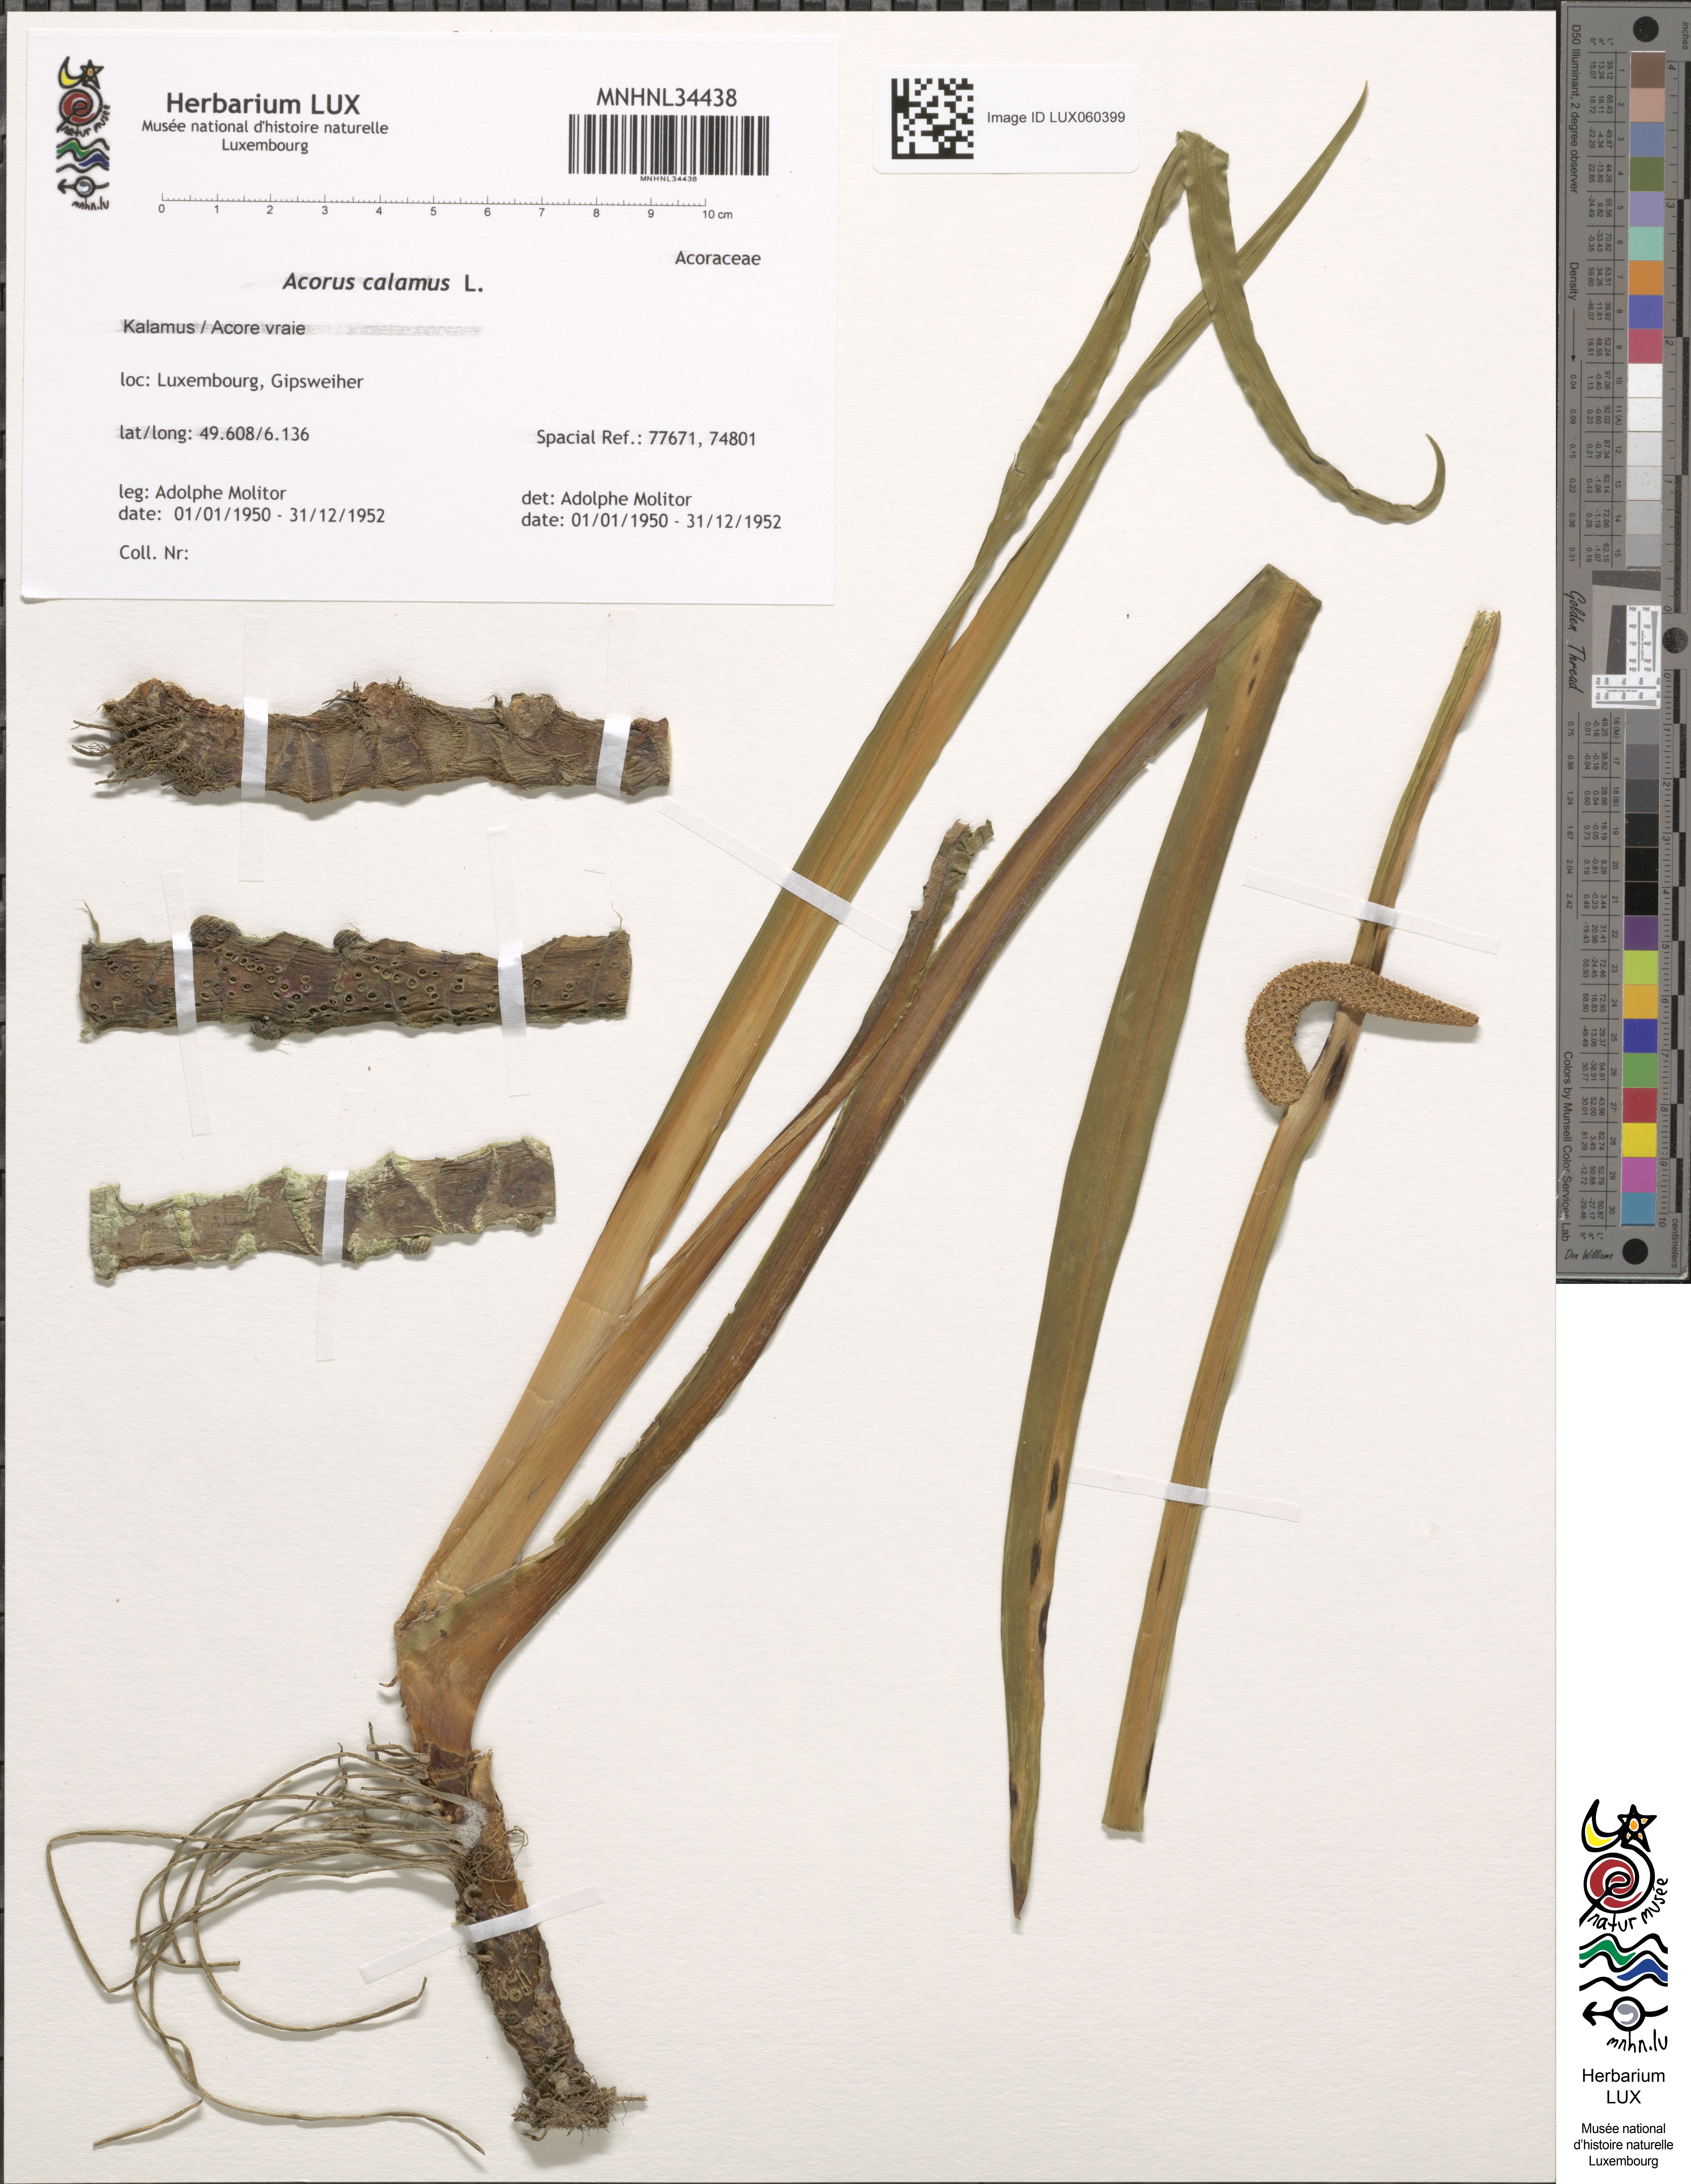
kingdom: Plantae
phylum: Tracheophyta
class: Liliopsida
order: Acorales
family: Acoraceae
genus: Acorus
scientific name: Acorus calamus
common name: Sweet-flag
